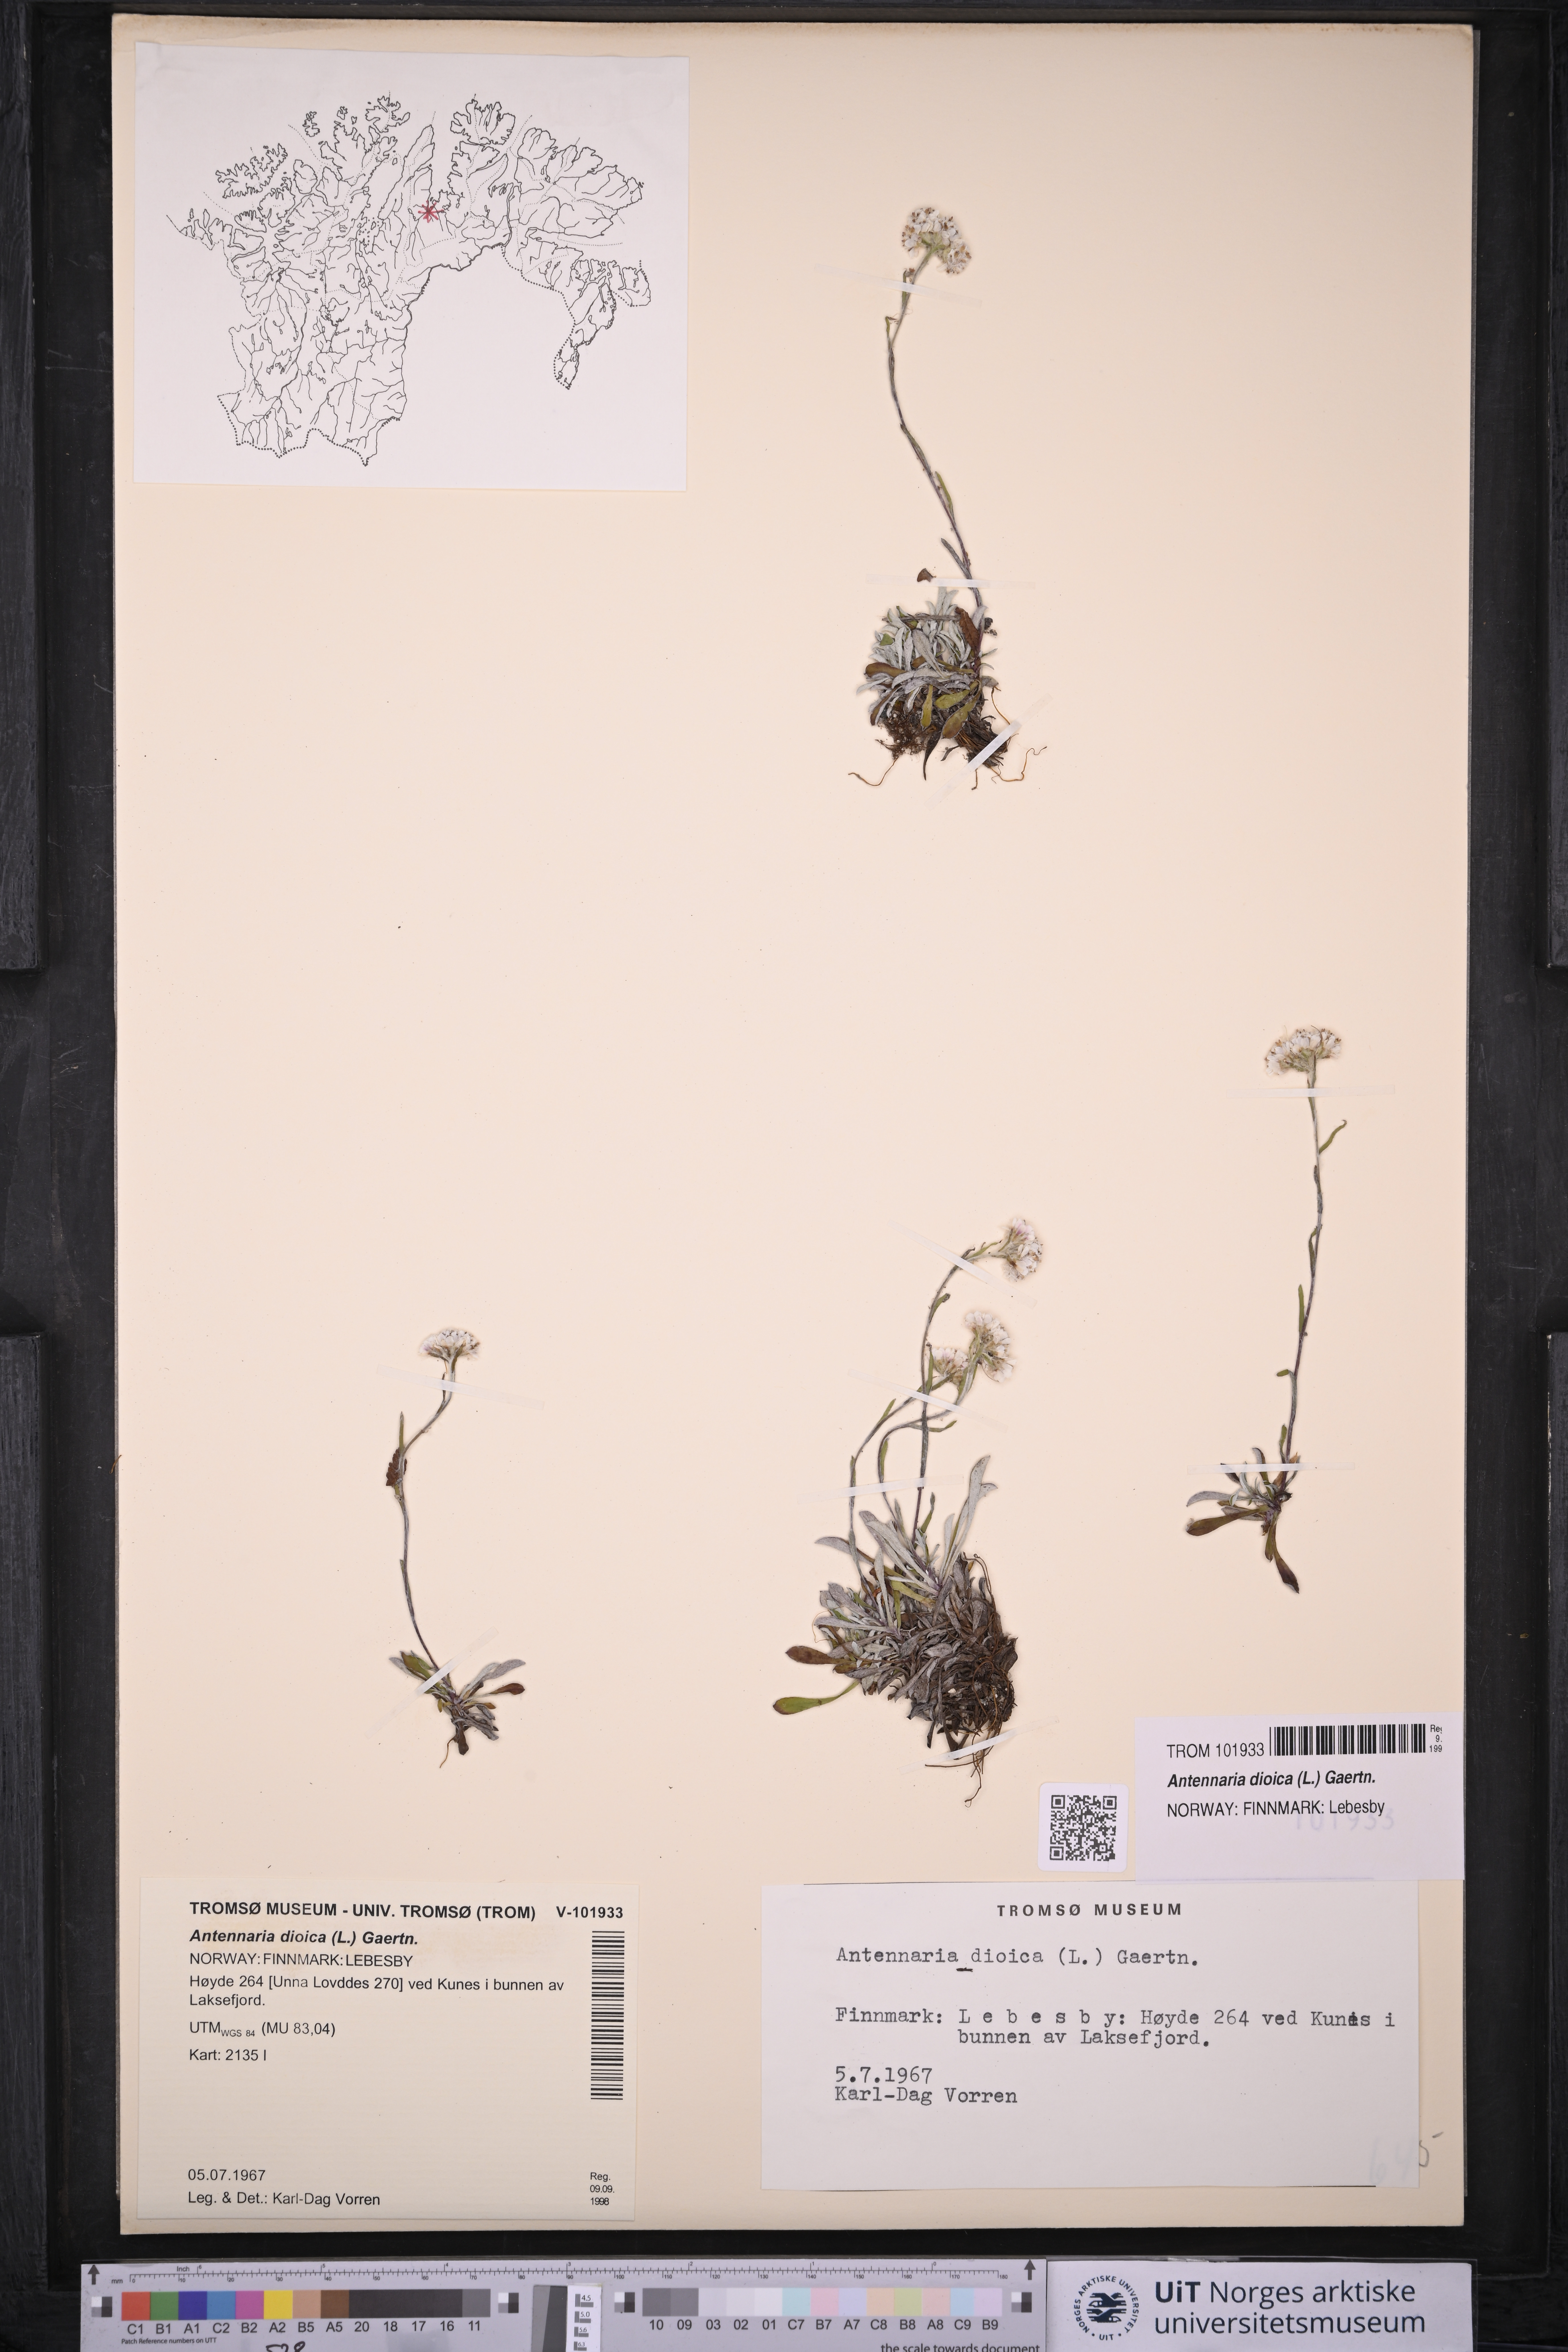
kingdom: Plantae
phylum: Tracheophyta
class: Magnoliopsida
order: Asterales
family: Asteraceae
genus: Antennaria
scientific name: Antennaria dioica
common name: Mountain everlasting
